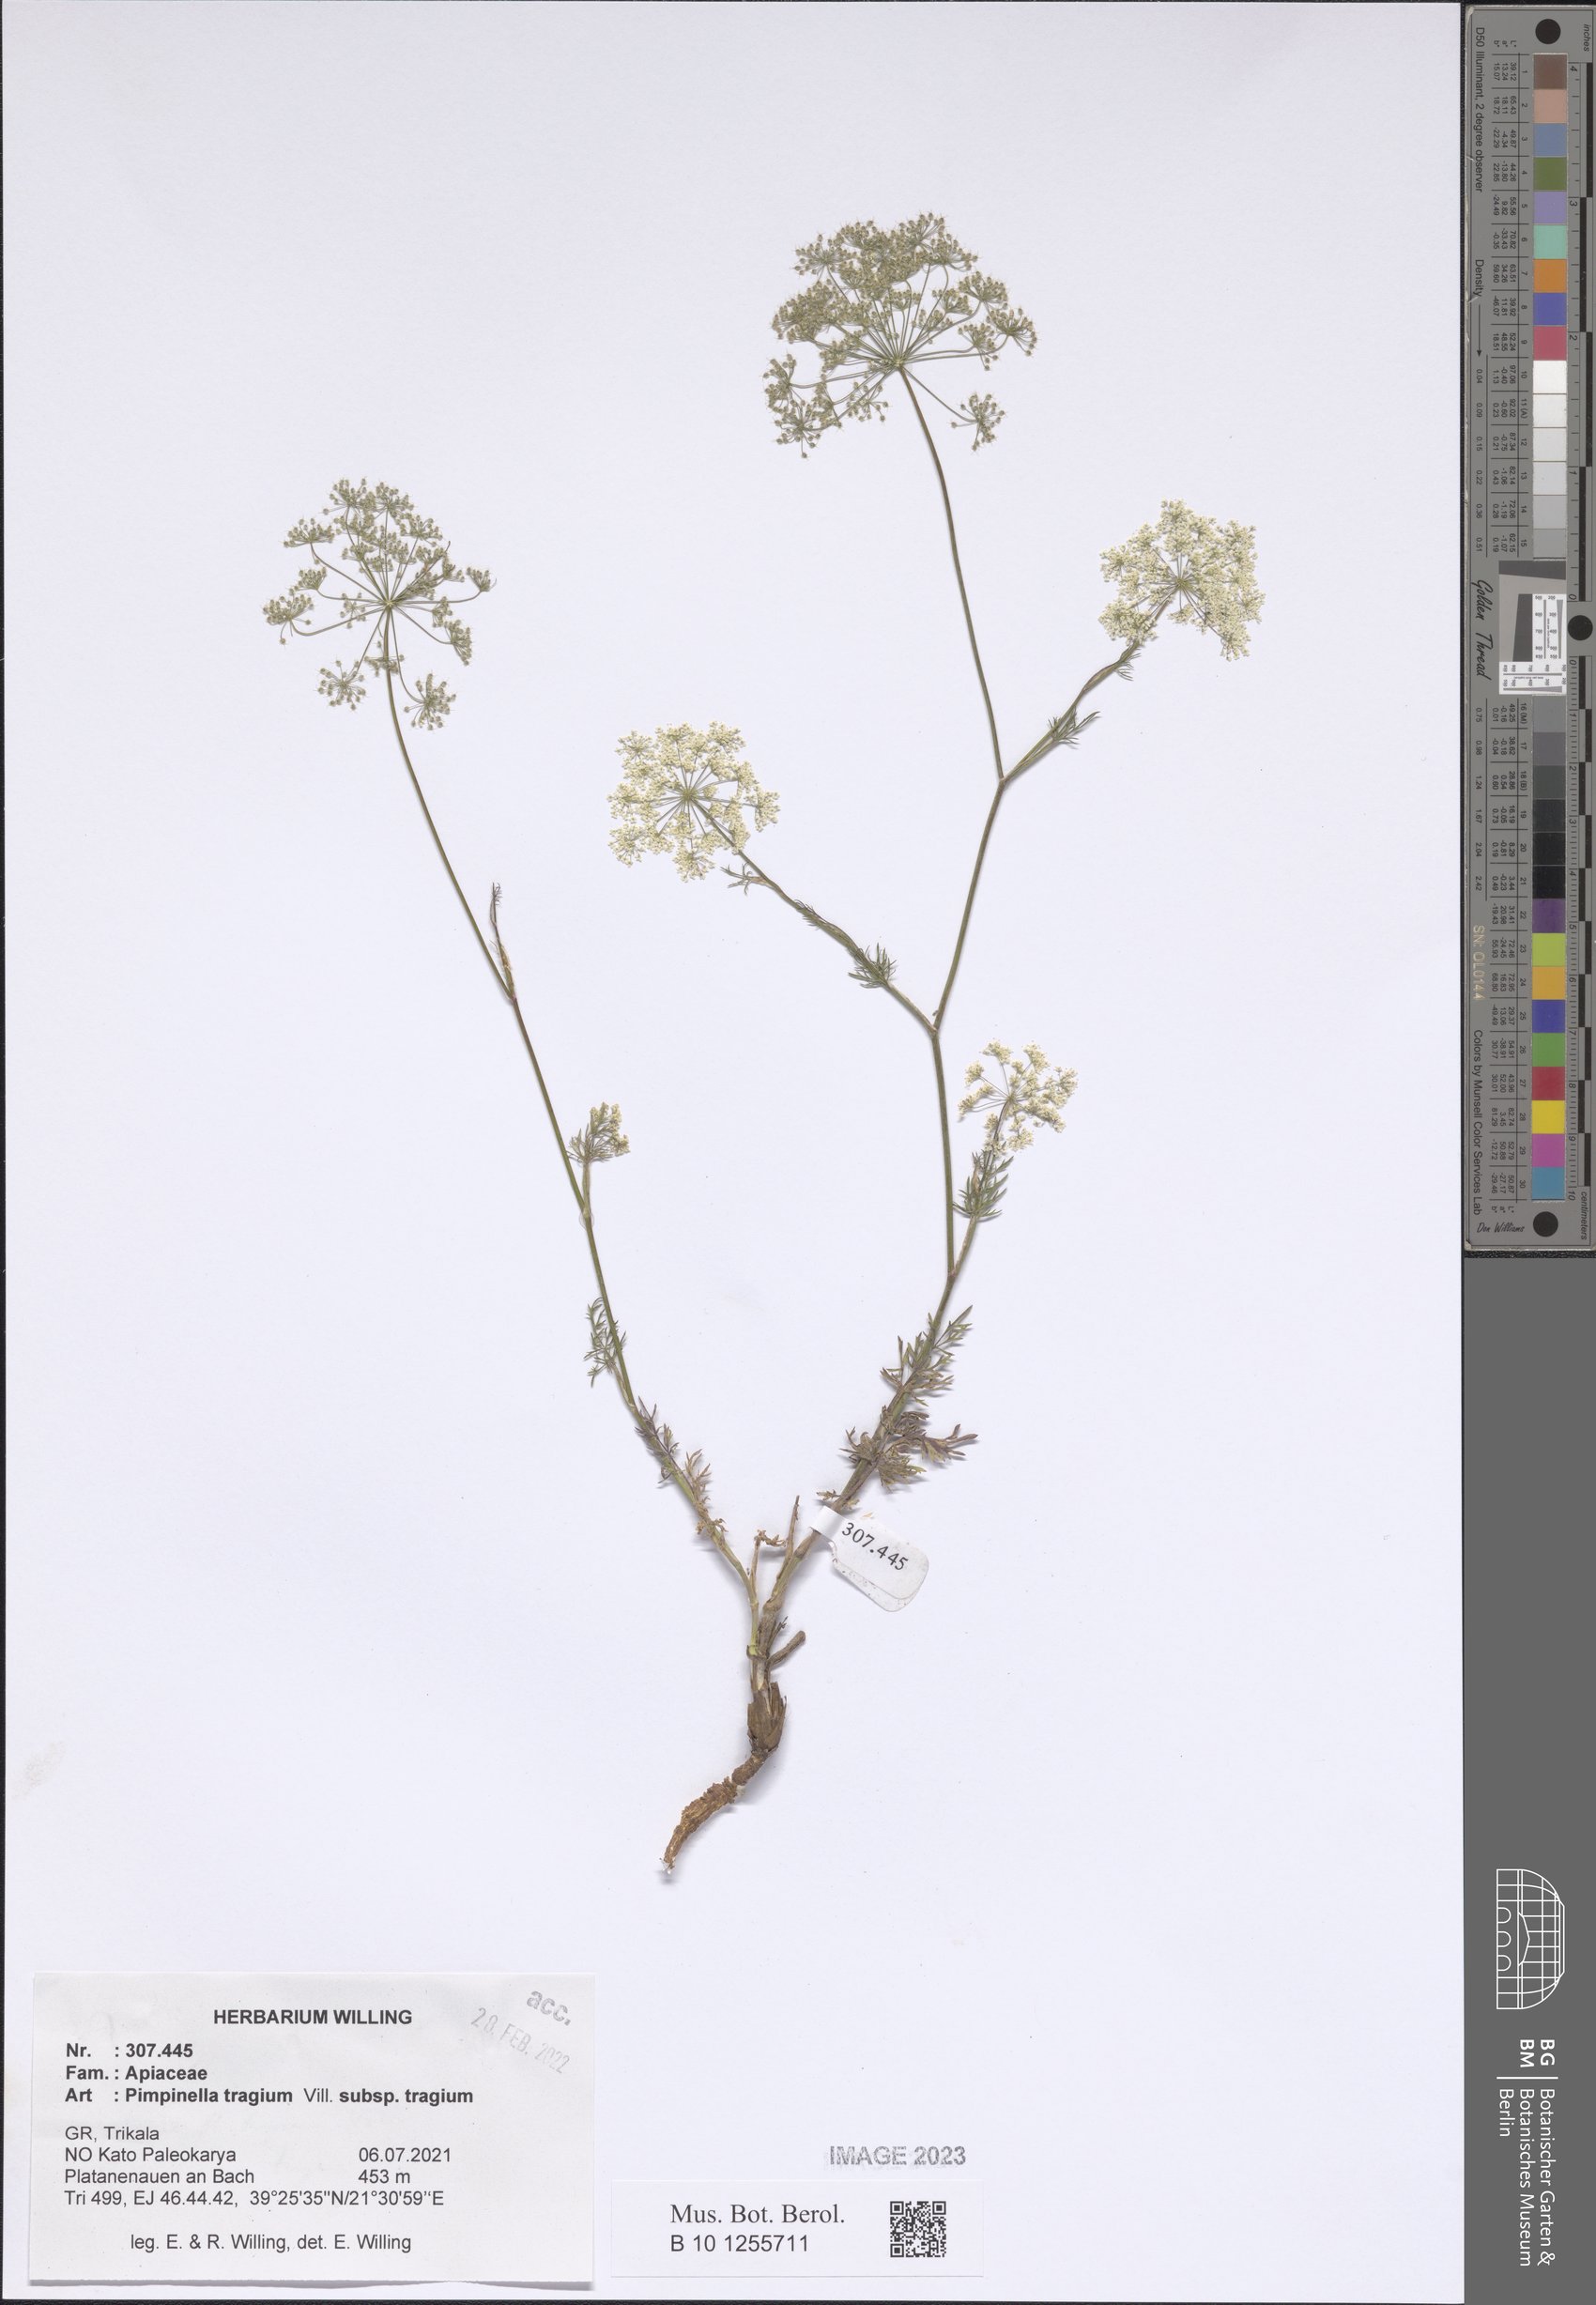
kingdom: Plantae
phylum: Tracheophyta
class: Magnoliopsida
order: Apiales
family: Apiaceae
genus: Pimpinella
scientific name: Pimpinella tragium
